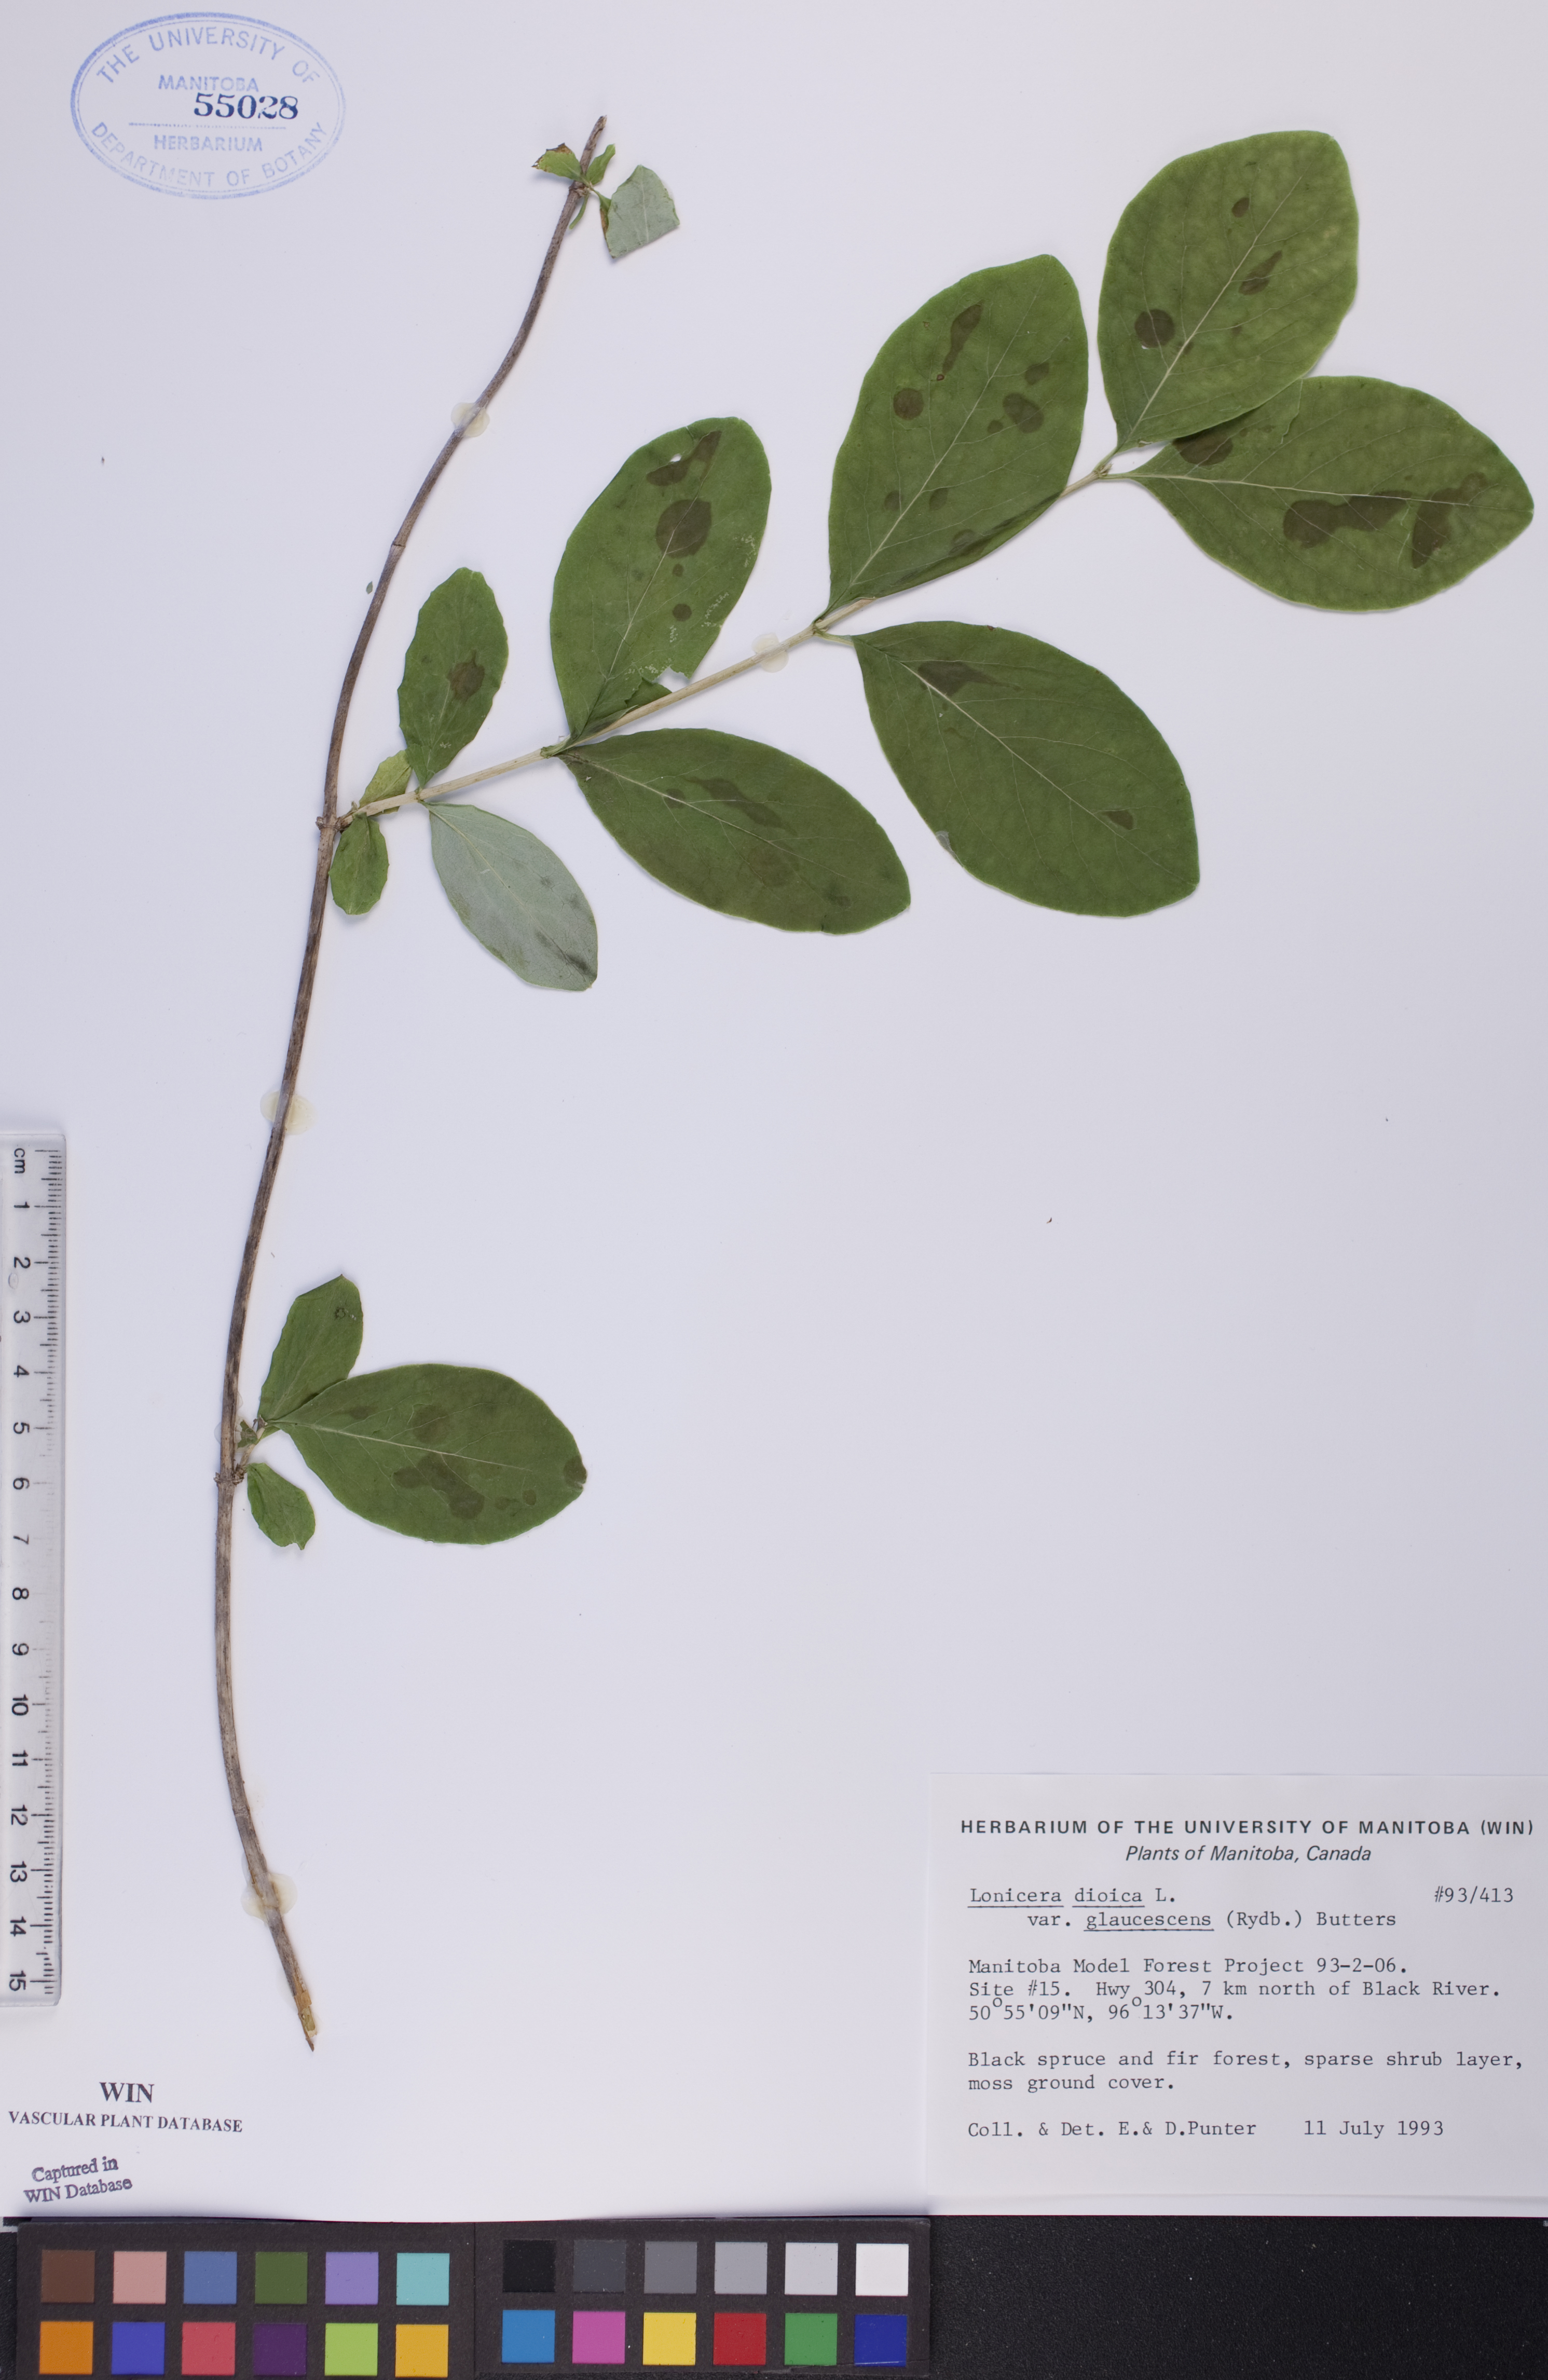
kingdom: Plantae
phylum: Tracheophyta
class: Magnoliopsida
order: Dipsacales
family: Caprifoliaceae
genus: Lonicera
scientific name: Lonicera dioica
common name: Limber honeysuckle
